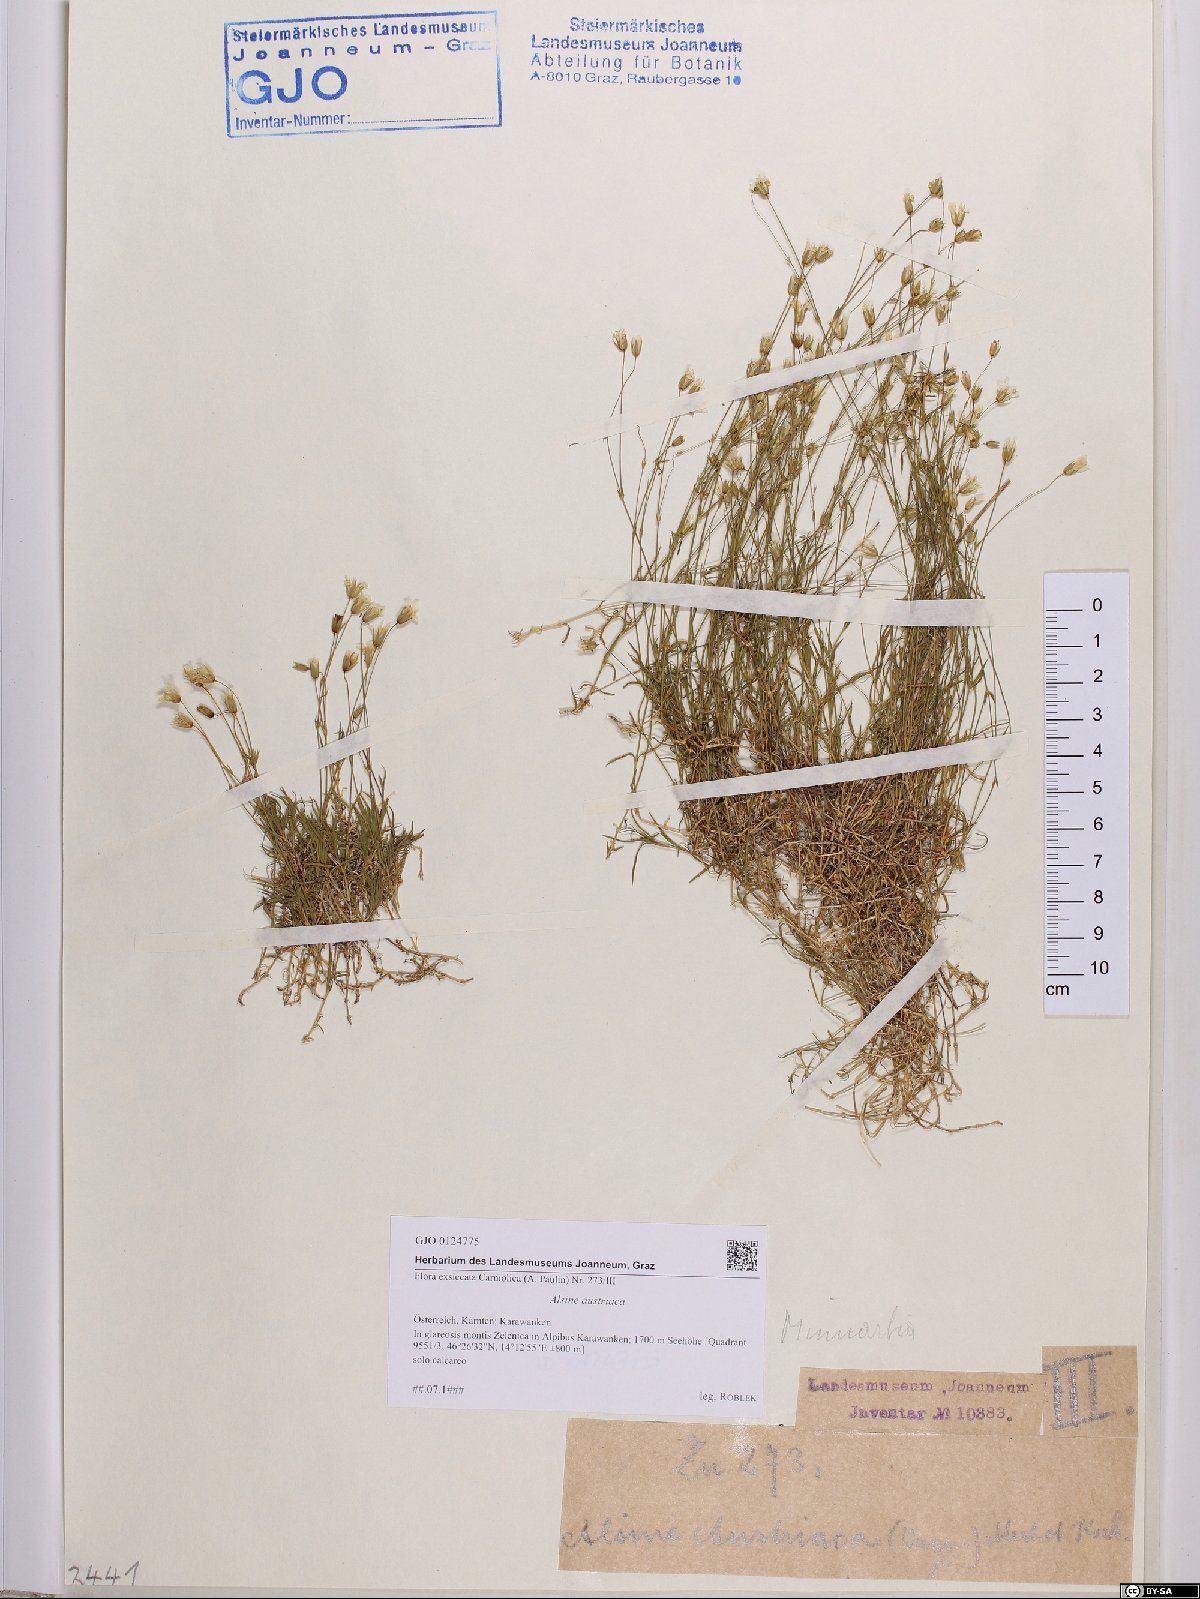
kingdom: Plantae
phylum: Tracheophyta
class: Magnoliopsida
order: Caryophyllales
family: Caryophyllaceae
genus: Sabulina
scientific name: Sabulina austriaca
